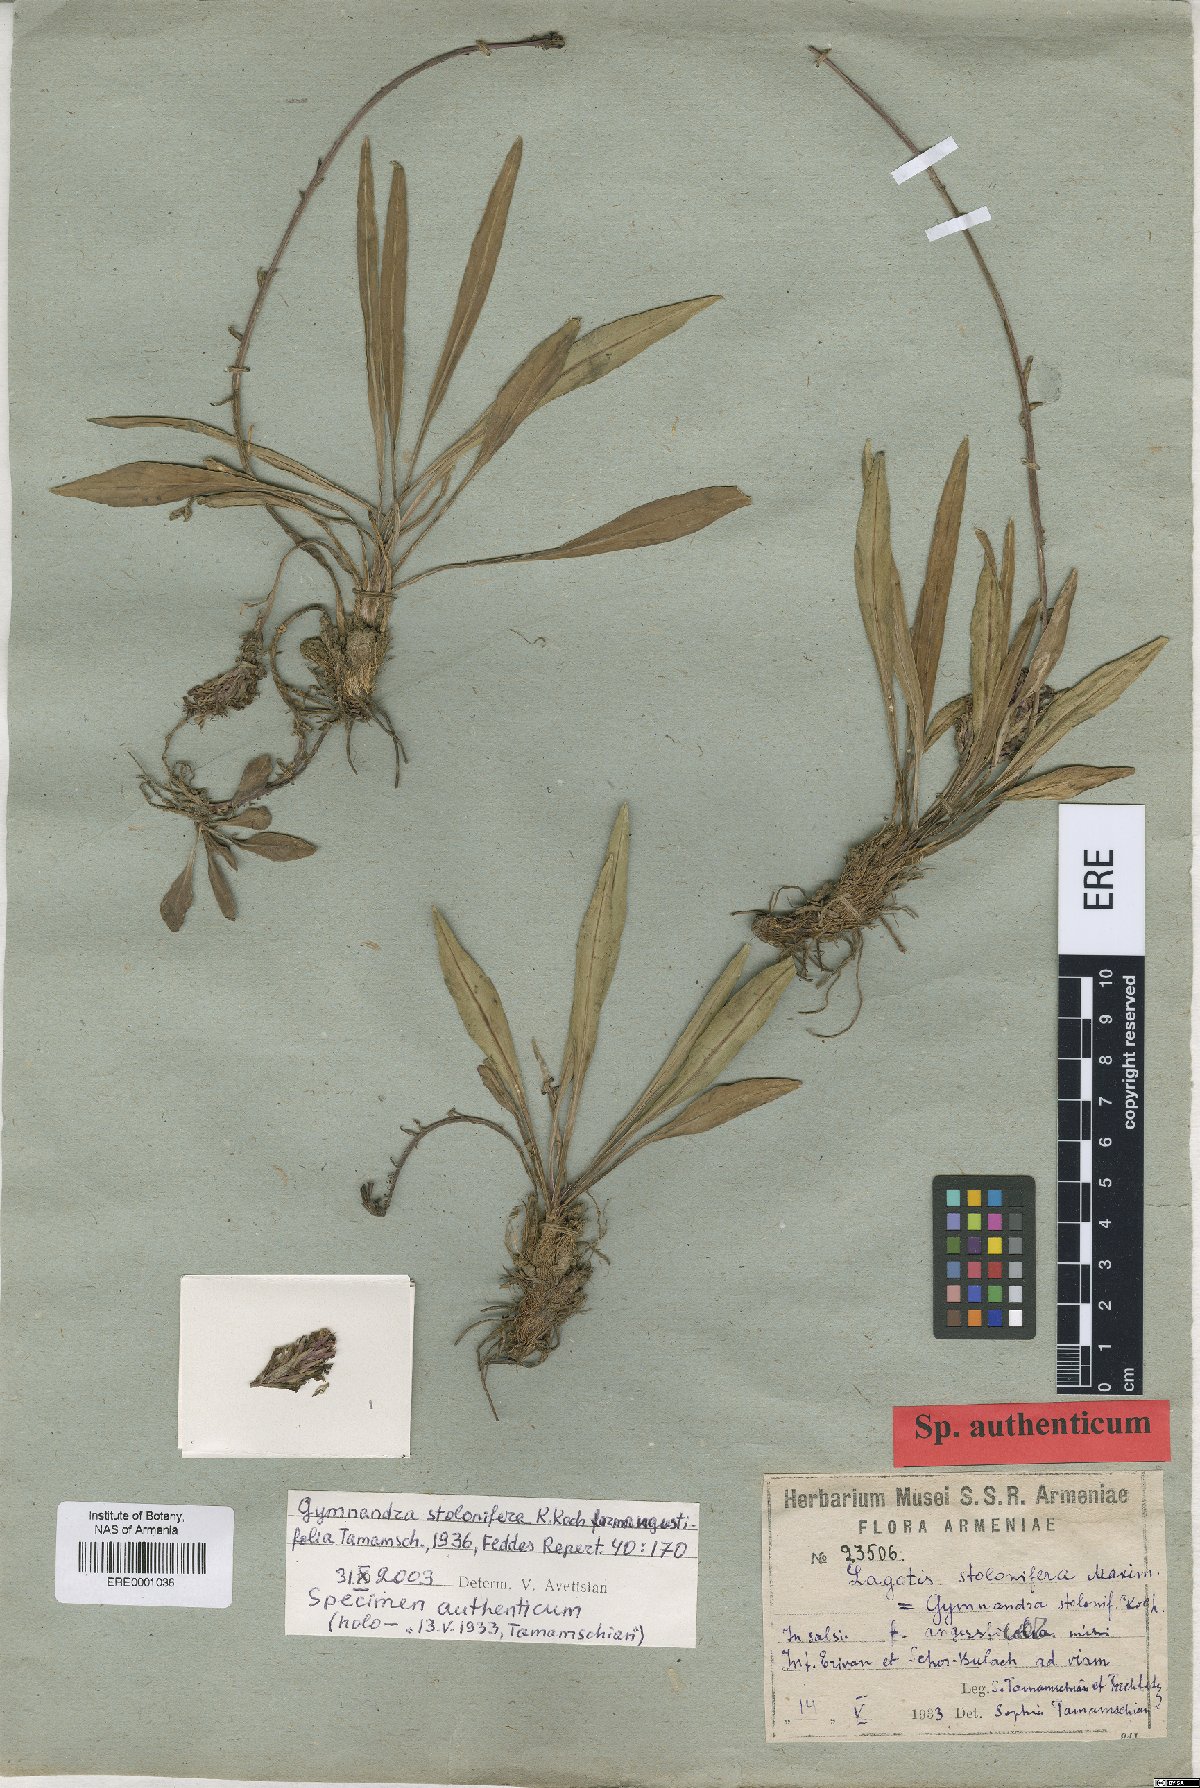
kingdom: Plantae
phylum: Tracheophyta
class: Magnoliopsida
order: Lamiales
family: Plantaginaceae
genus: Lagotis
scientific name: Lagotis stolonifera
